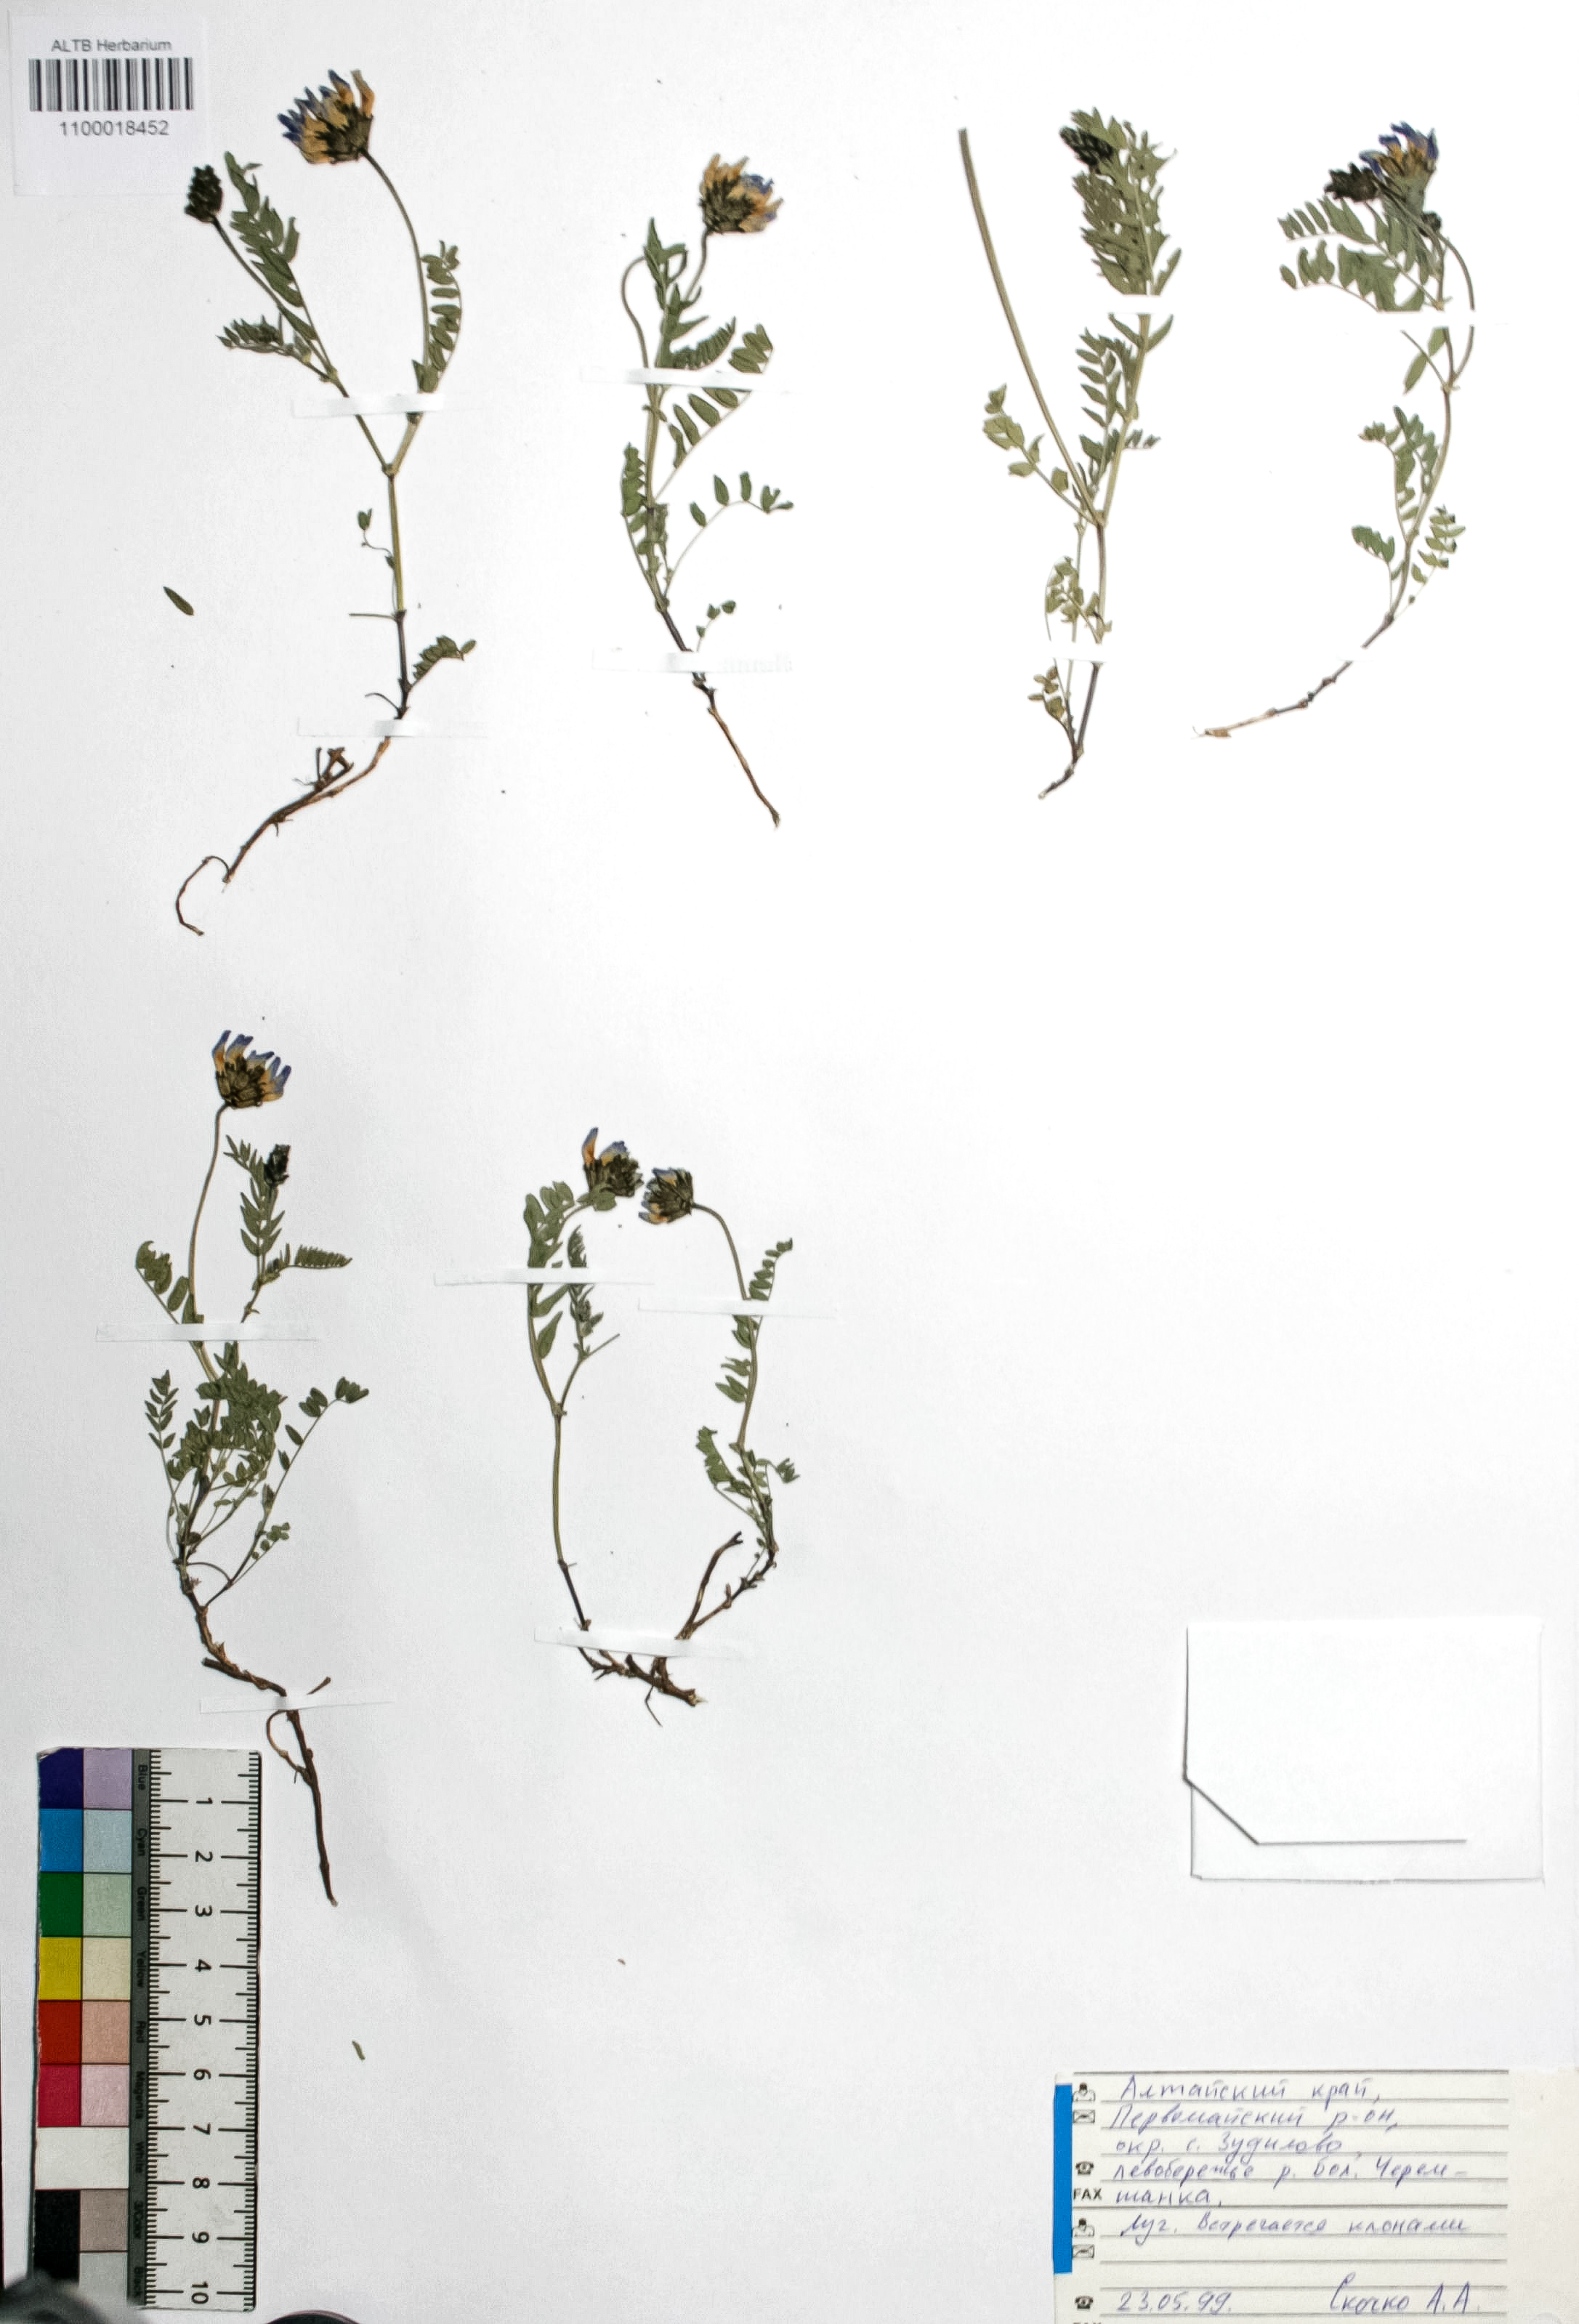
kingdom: Plantae
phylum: Tracheophyta
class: Magnoliopsida
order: Fabales
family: Fabaceae
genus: Astragalus
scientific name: Astragalus danicus
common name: Purple milk-vetch
